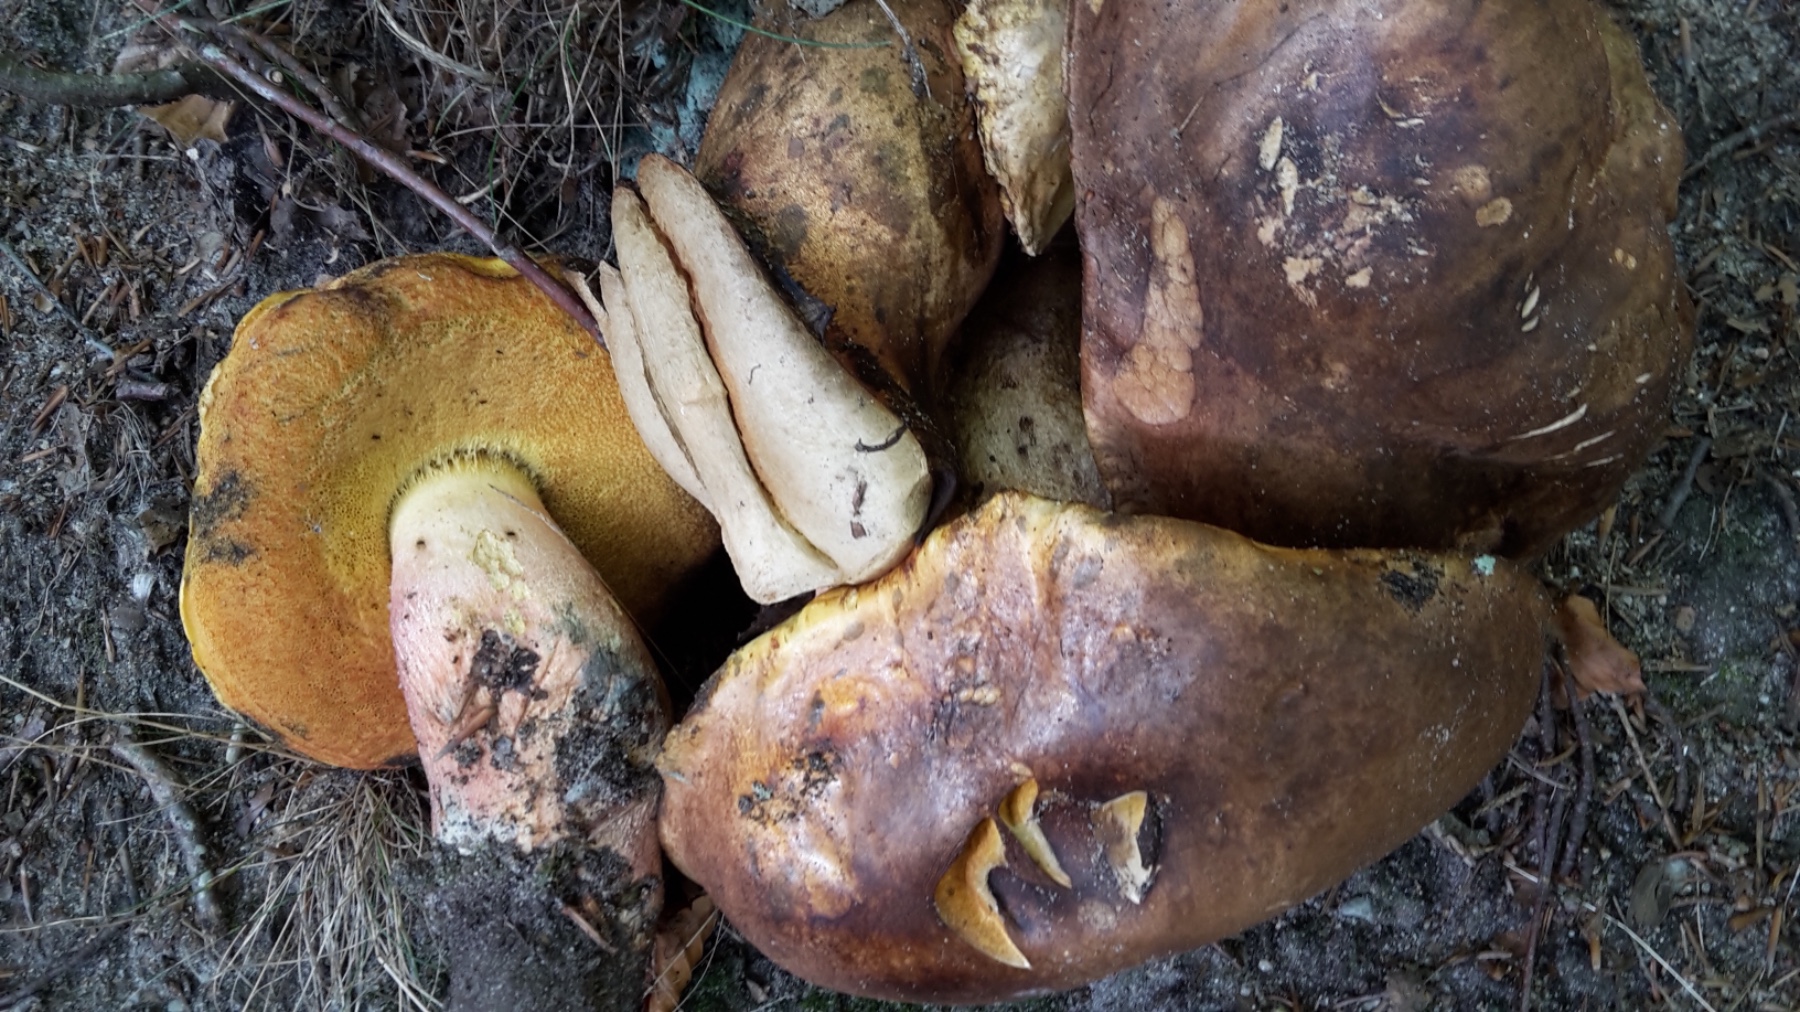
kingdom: Fungi
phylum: Basidiomycota
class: Agaricomycetes
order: Boletales
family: Boletaceae
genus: Neoboletus
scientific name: Neoboletus
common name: indigorørhat
